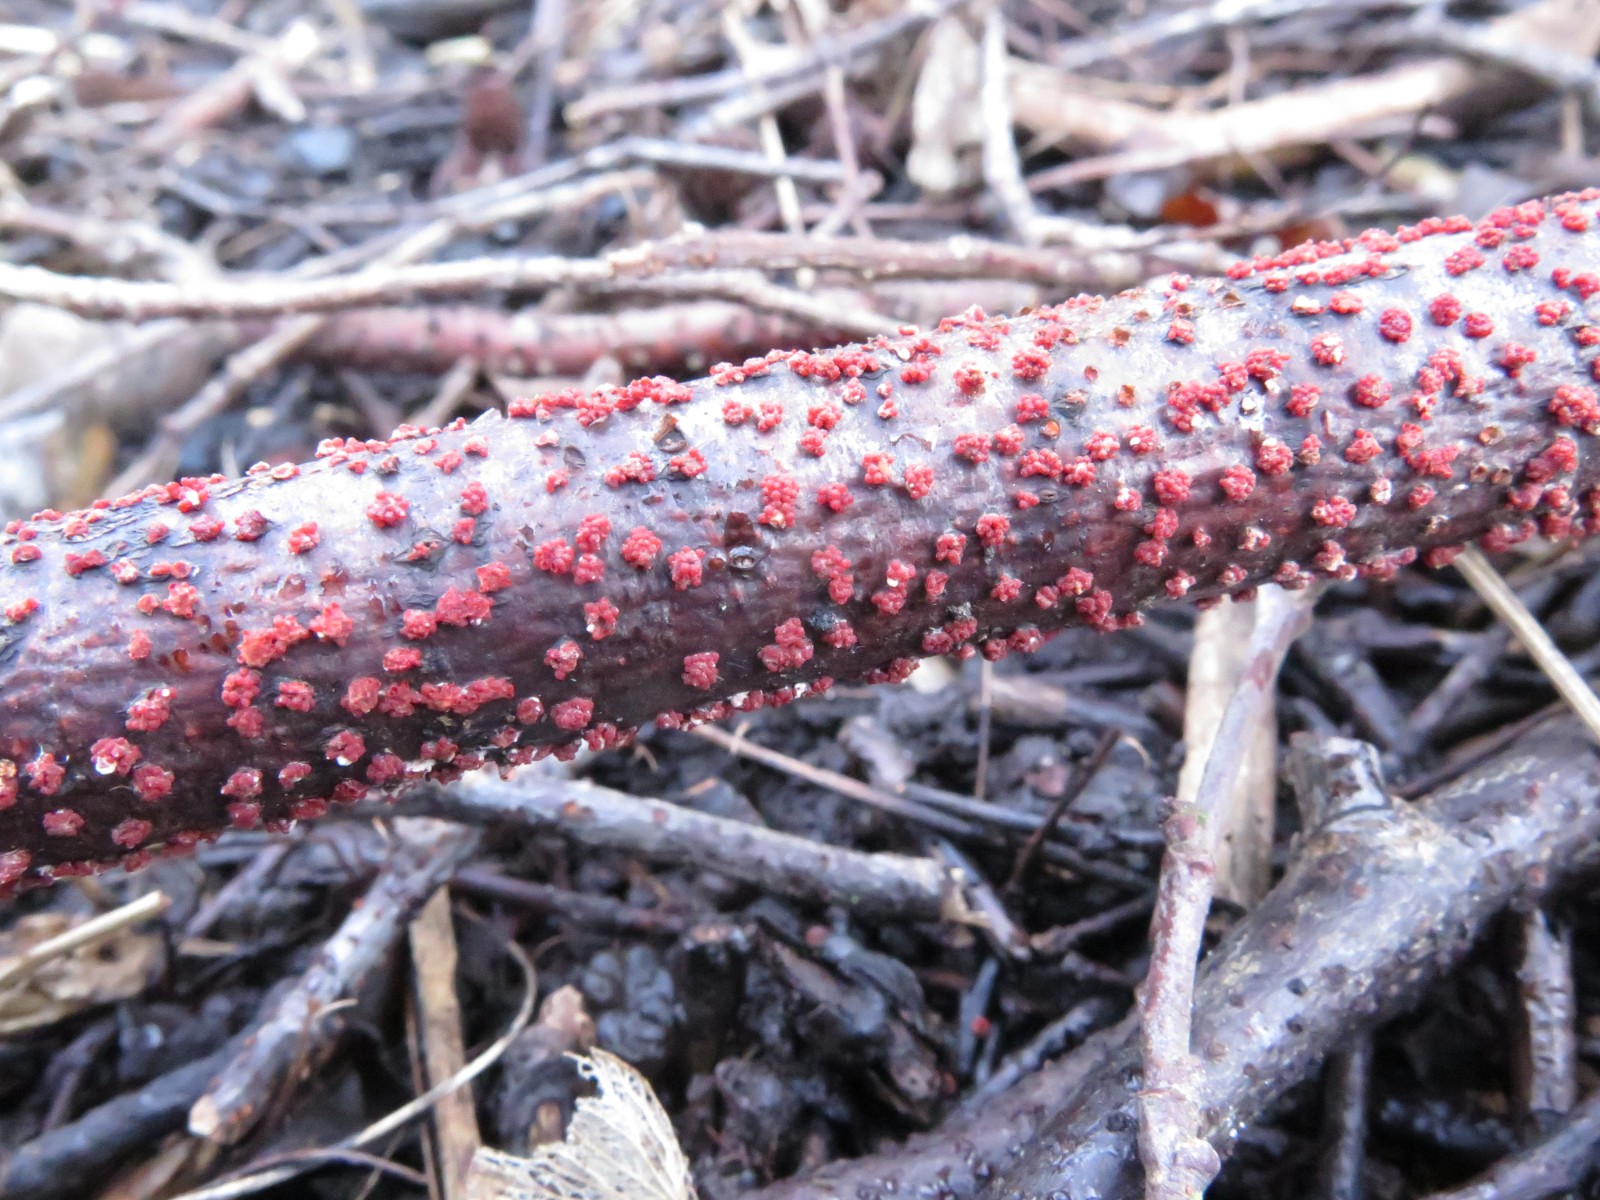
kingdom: Fungi
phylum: Ascomycota
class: Sordariomycetes
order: Hypocreales
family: Nectriaceae
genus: Nectria
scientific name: Nectria cinnabarina
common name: almindelig cinnobersvamp
